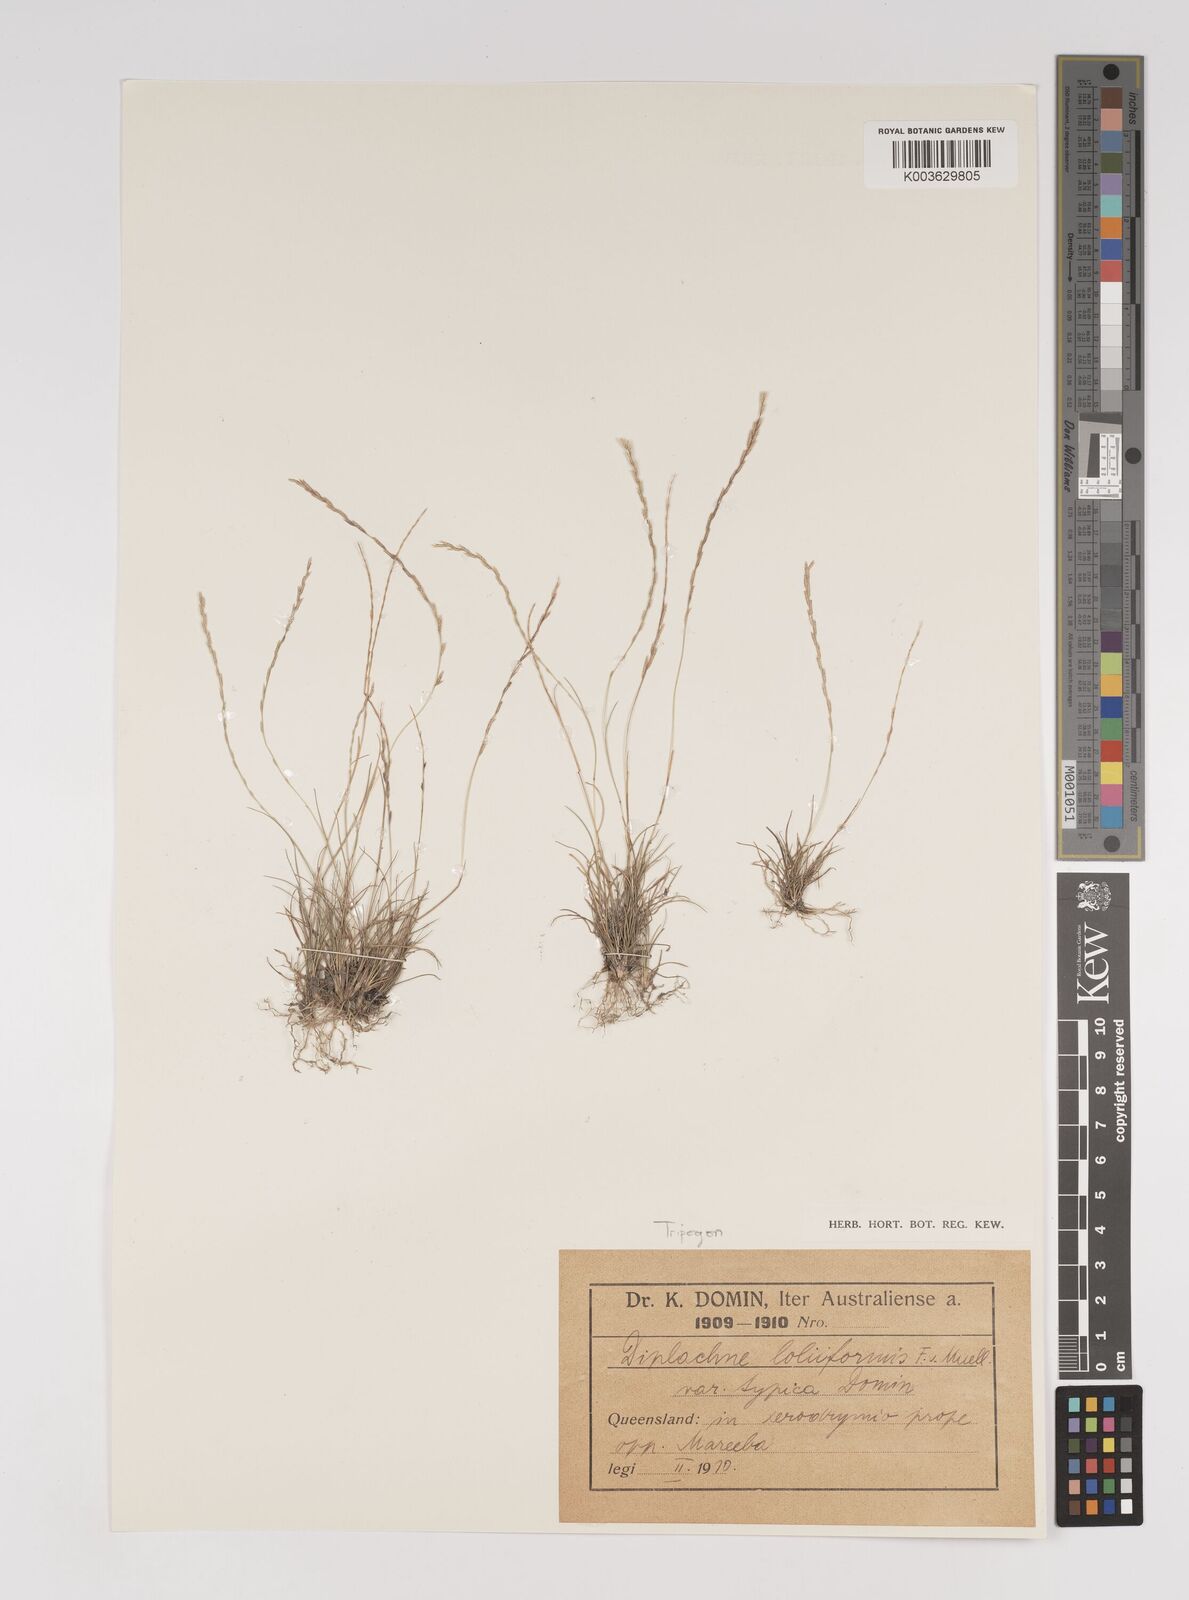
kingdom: Plantae
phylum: Tracheophyta
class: Liliopsida
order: Poales
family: Poaceae
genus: Tripogonella
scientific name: Tripogonella loliiformis
